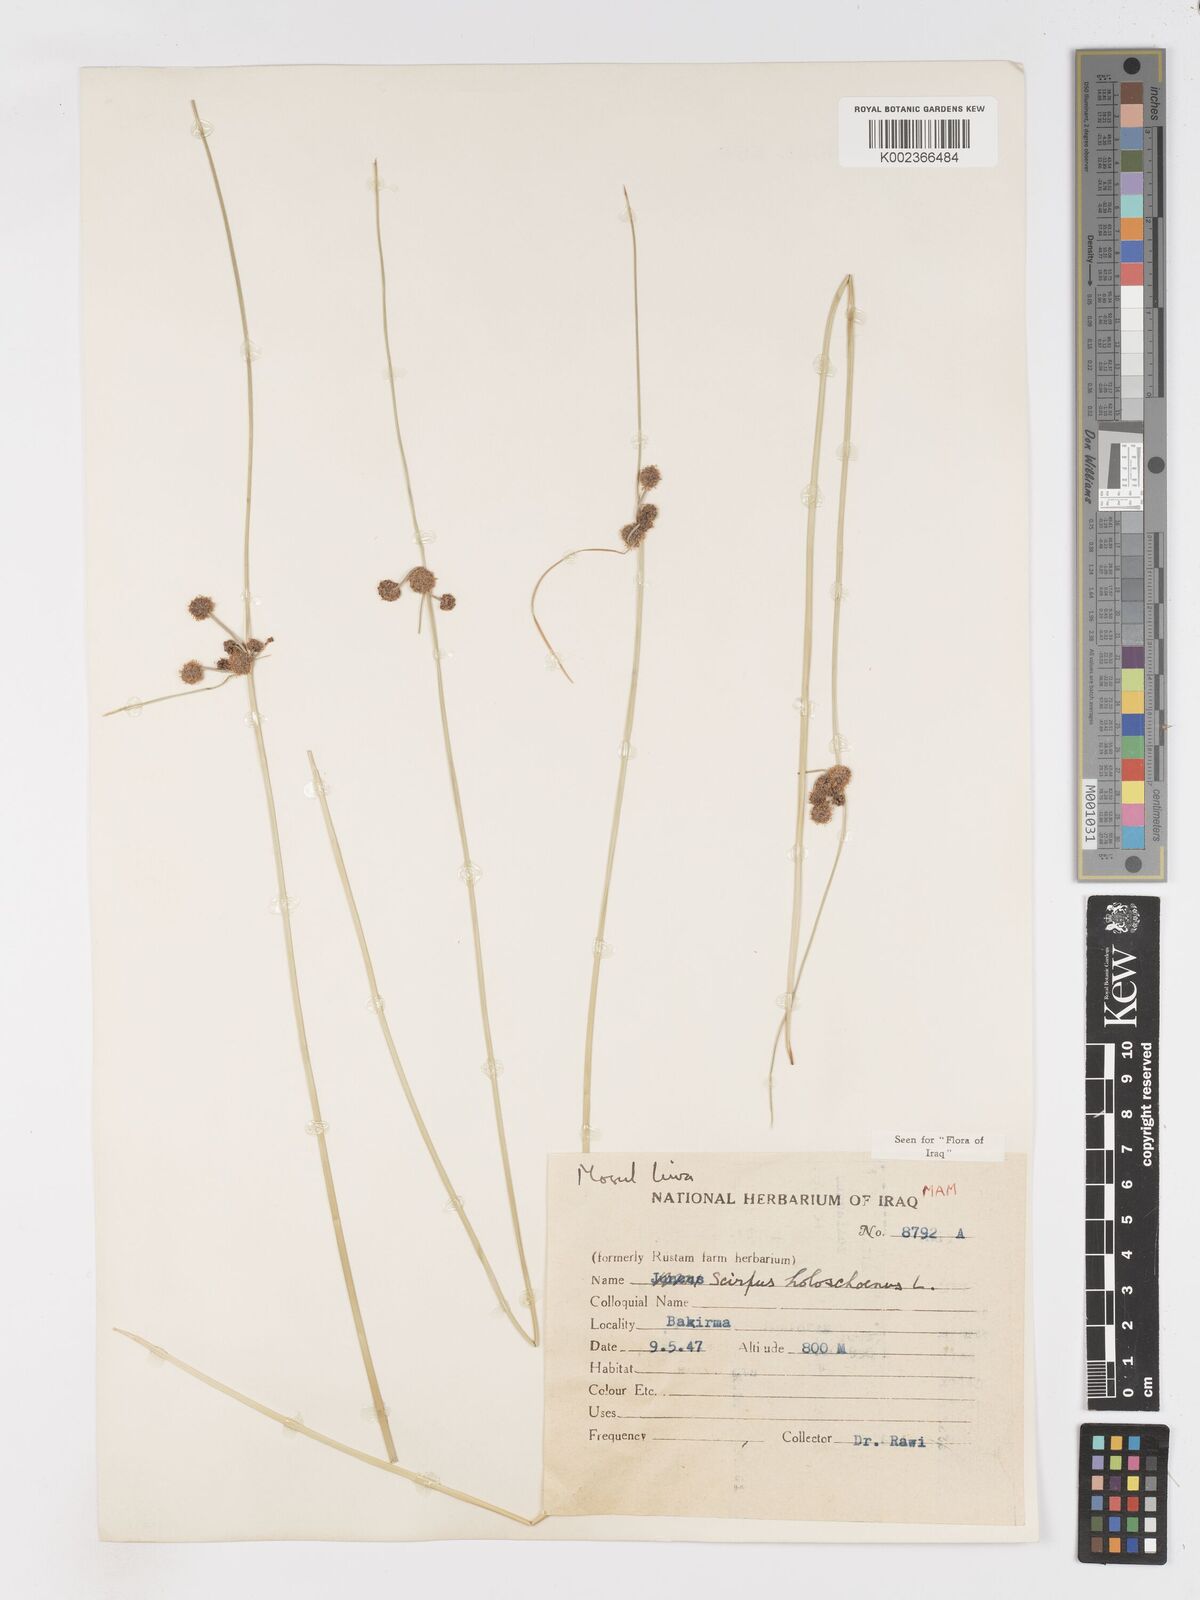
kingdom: Plantae
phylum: Tracheophyta
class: Liliopsida
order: Poales
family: Cyperaceae
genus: Scirpoides
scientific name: Scirpoides holoschoenus
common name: Round-headed club-rush
